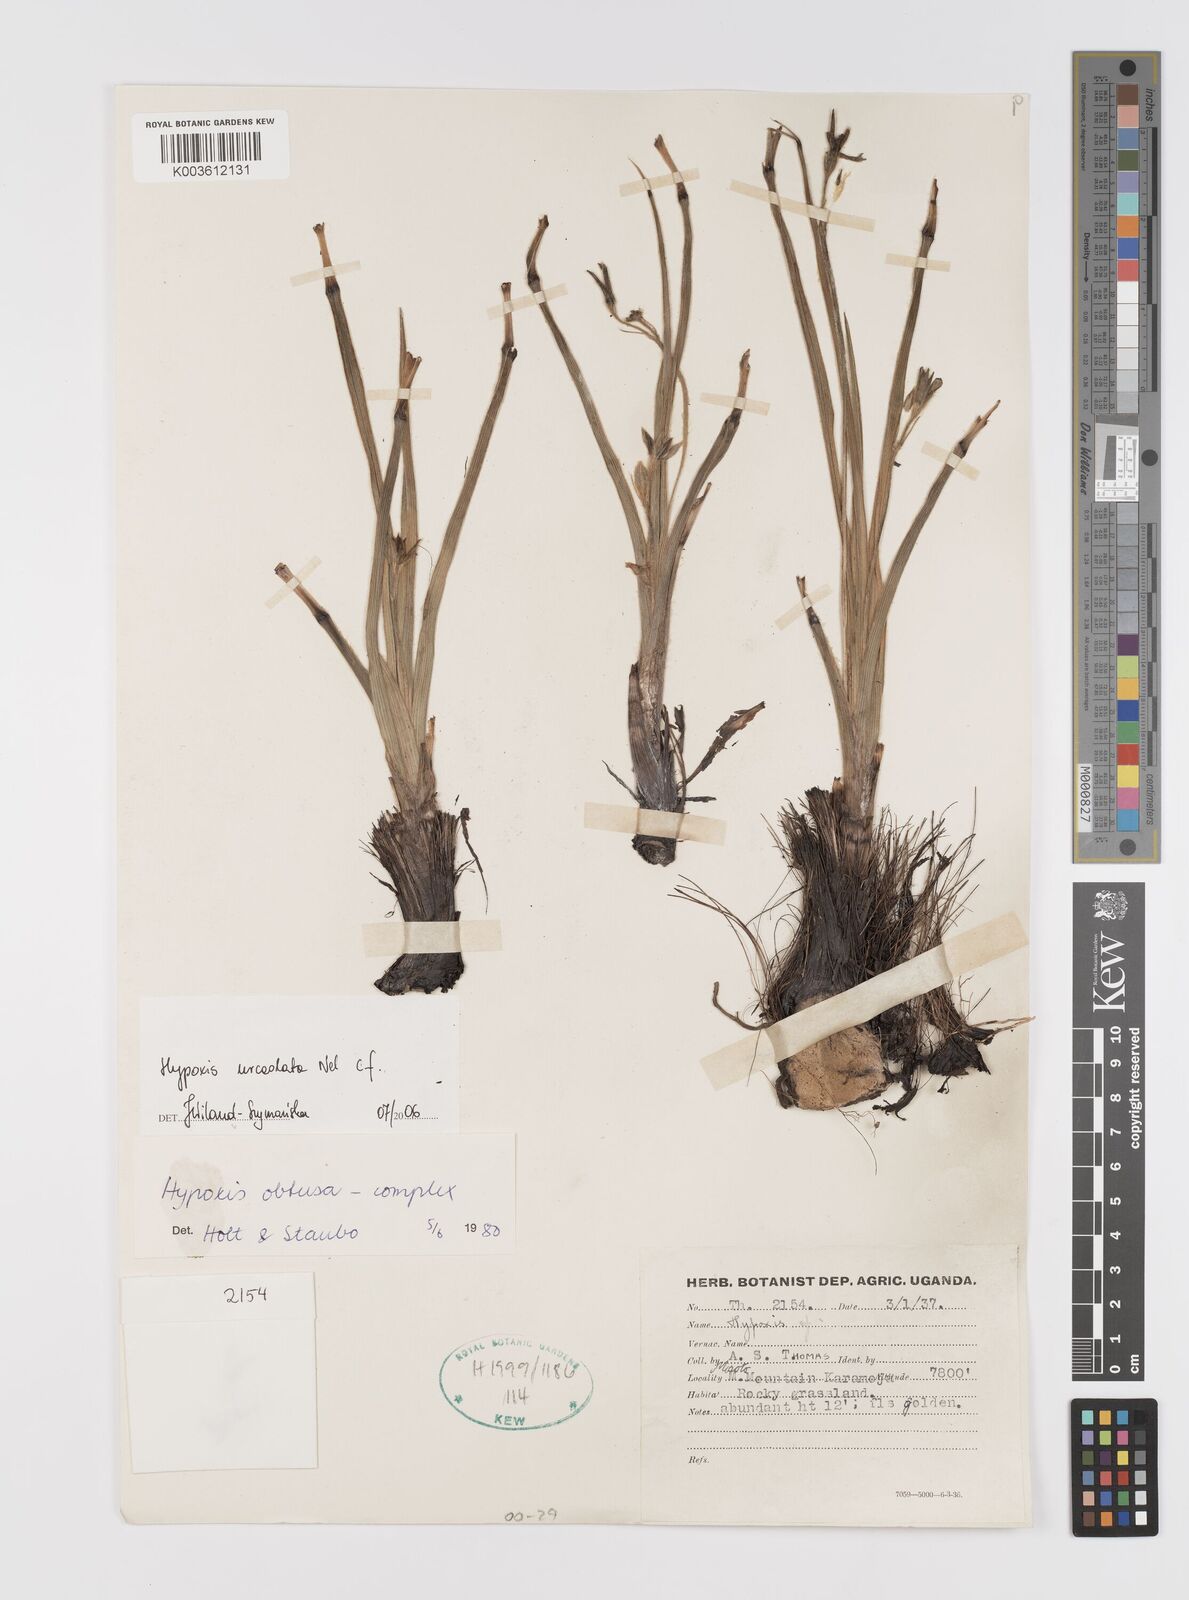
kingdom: Plantae
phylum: Tracheophyta
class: Liliopsida
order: Asparagales
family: Hypoxidaceae
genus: Hypoxis
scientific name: Hypoxis urceolata
